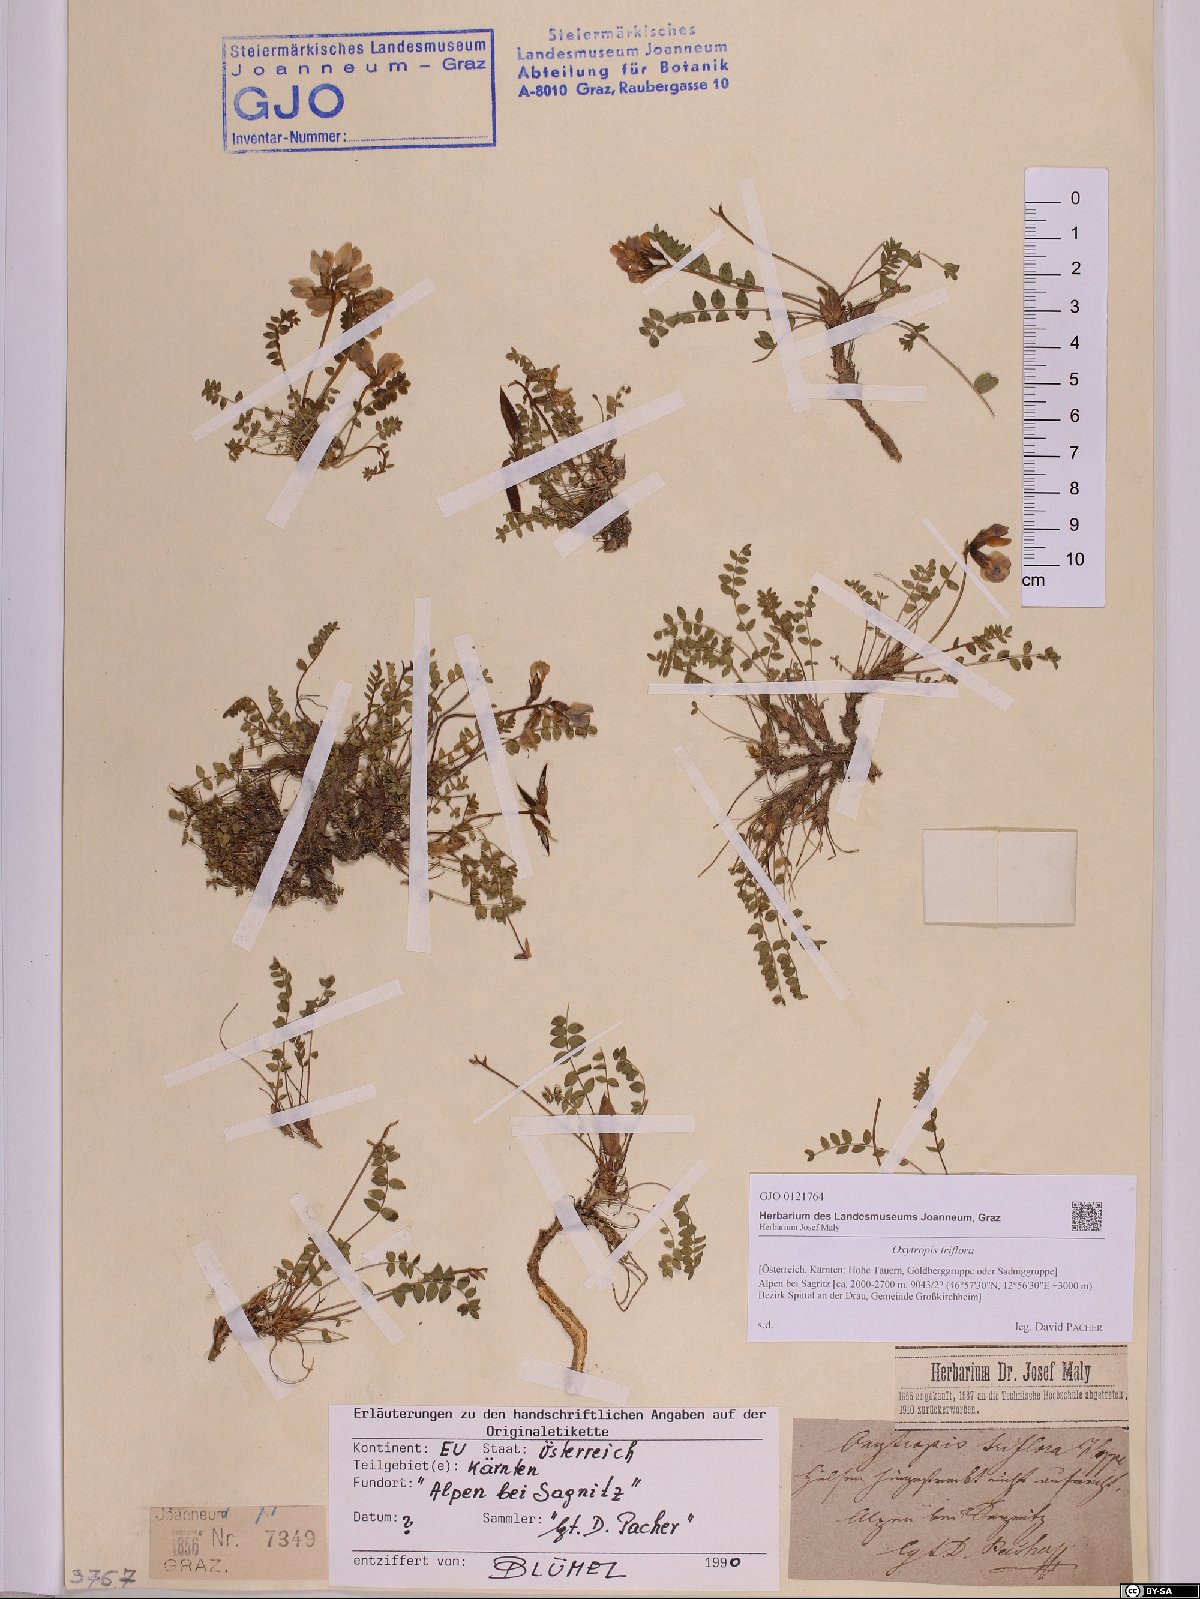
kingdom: Plantae
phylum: Tracheophyta
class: Magnoliopsida
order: Fabales
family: Fabaceae
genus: Oxytropis
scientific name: Oxytropis triflora
